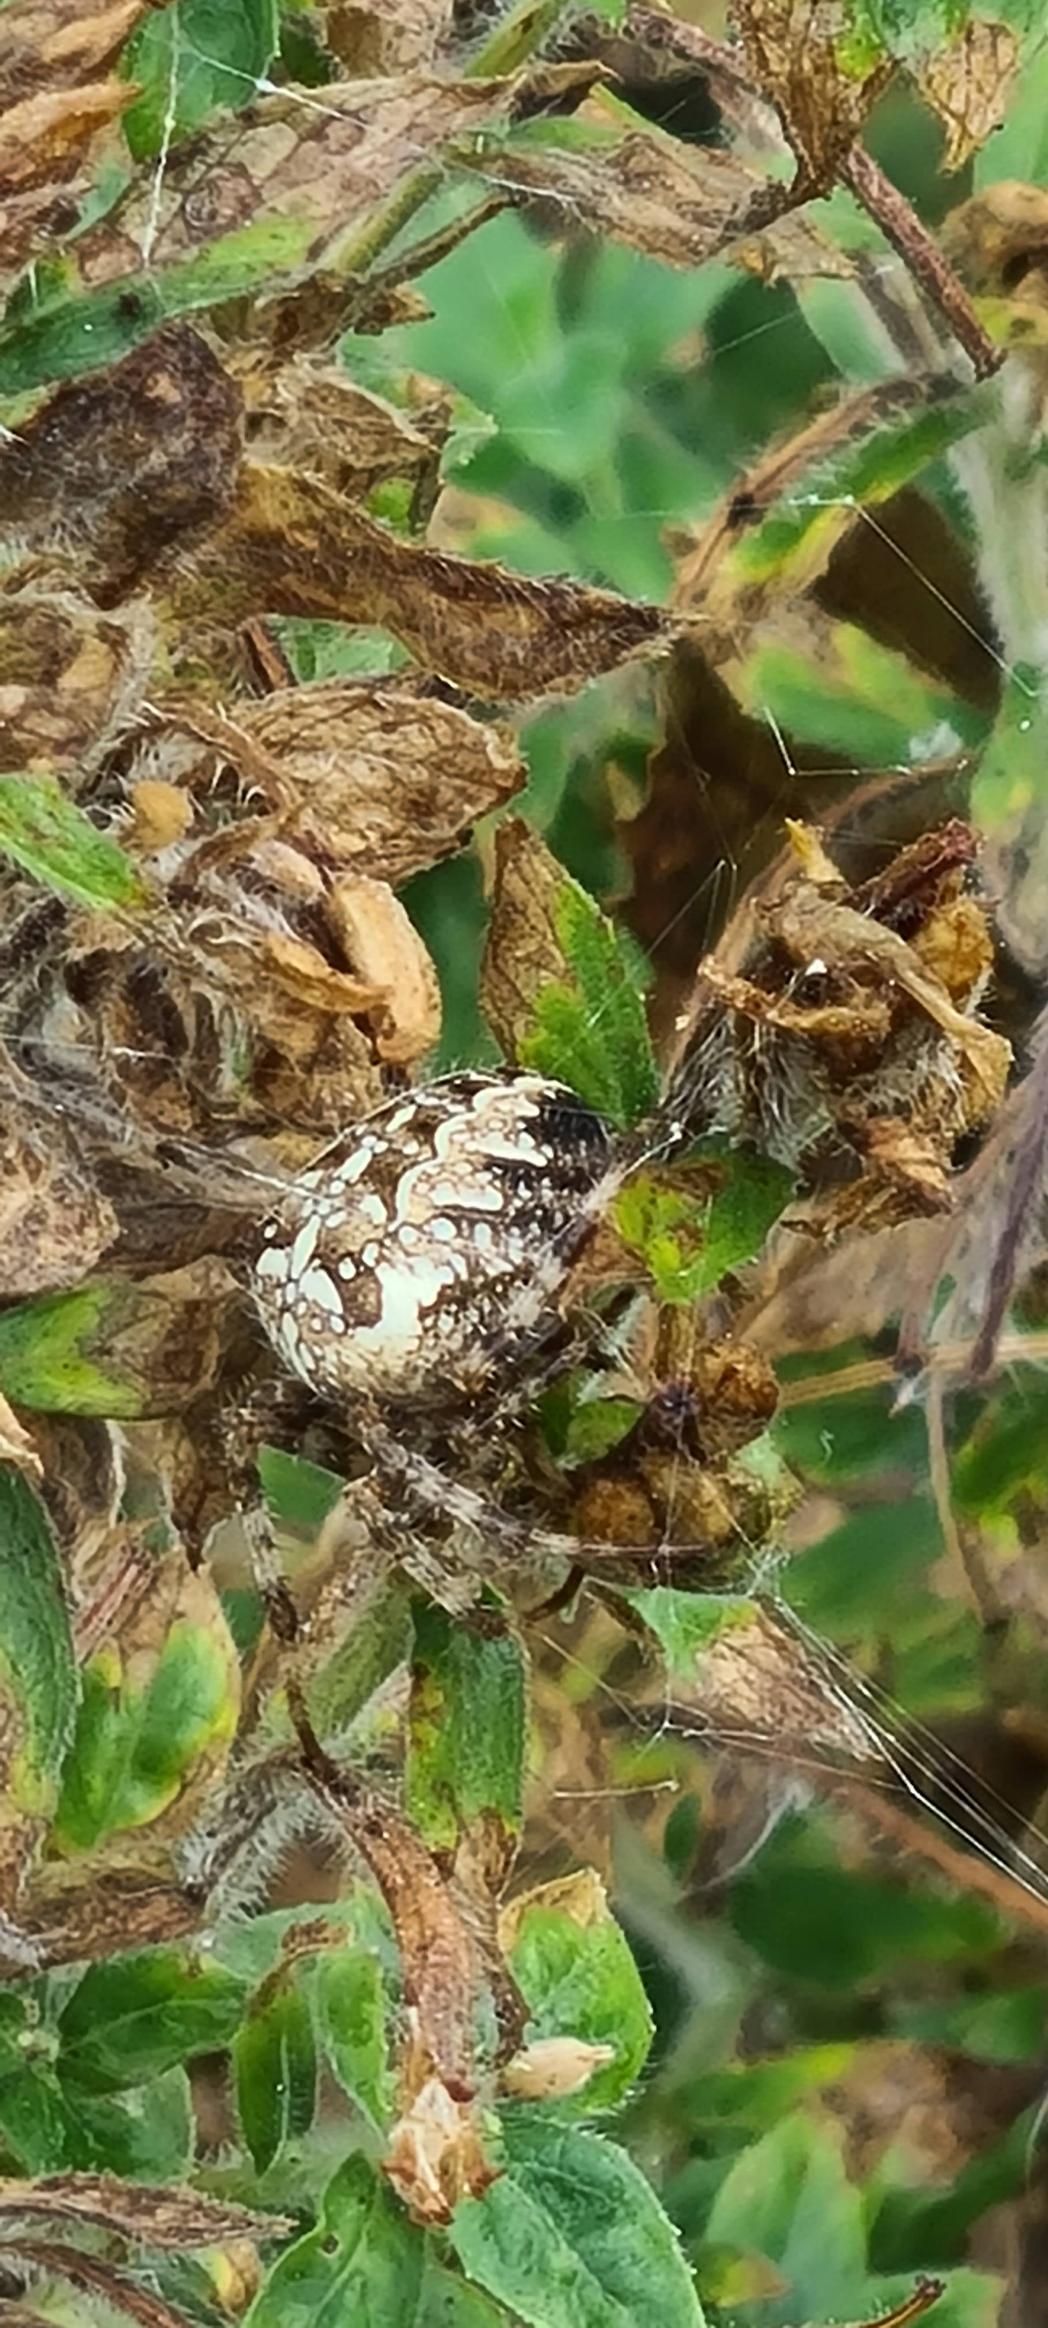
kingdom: Animalia
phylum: Arthropoda
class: Arachnida
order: Araneae
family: Araneidae
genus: Araneus
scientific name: Araneus diadematus
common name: Korsedderkop
